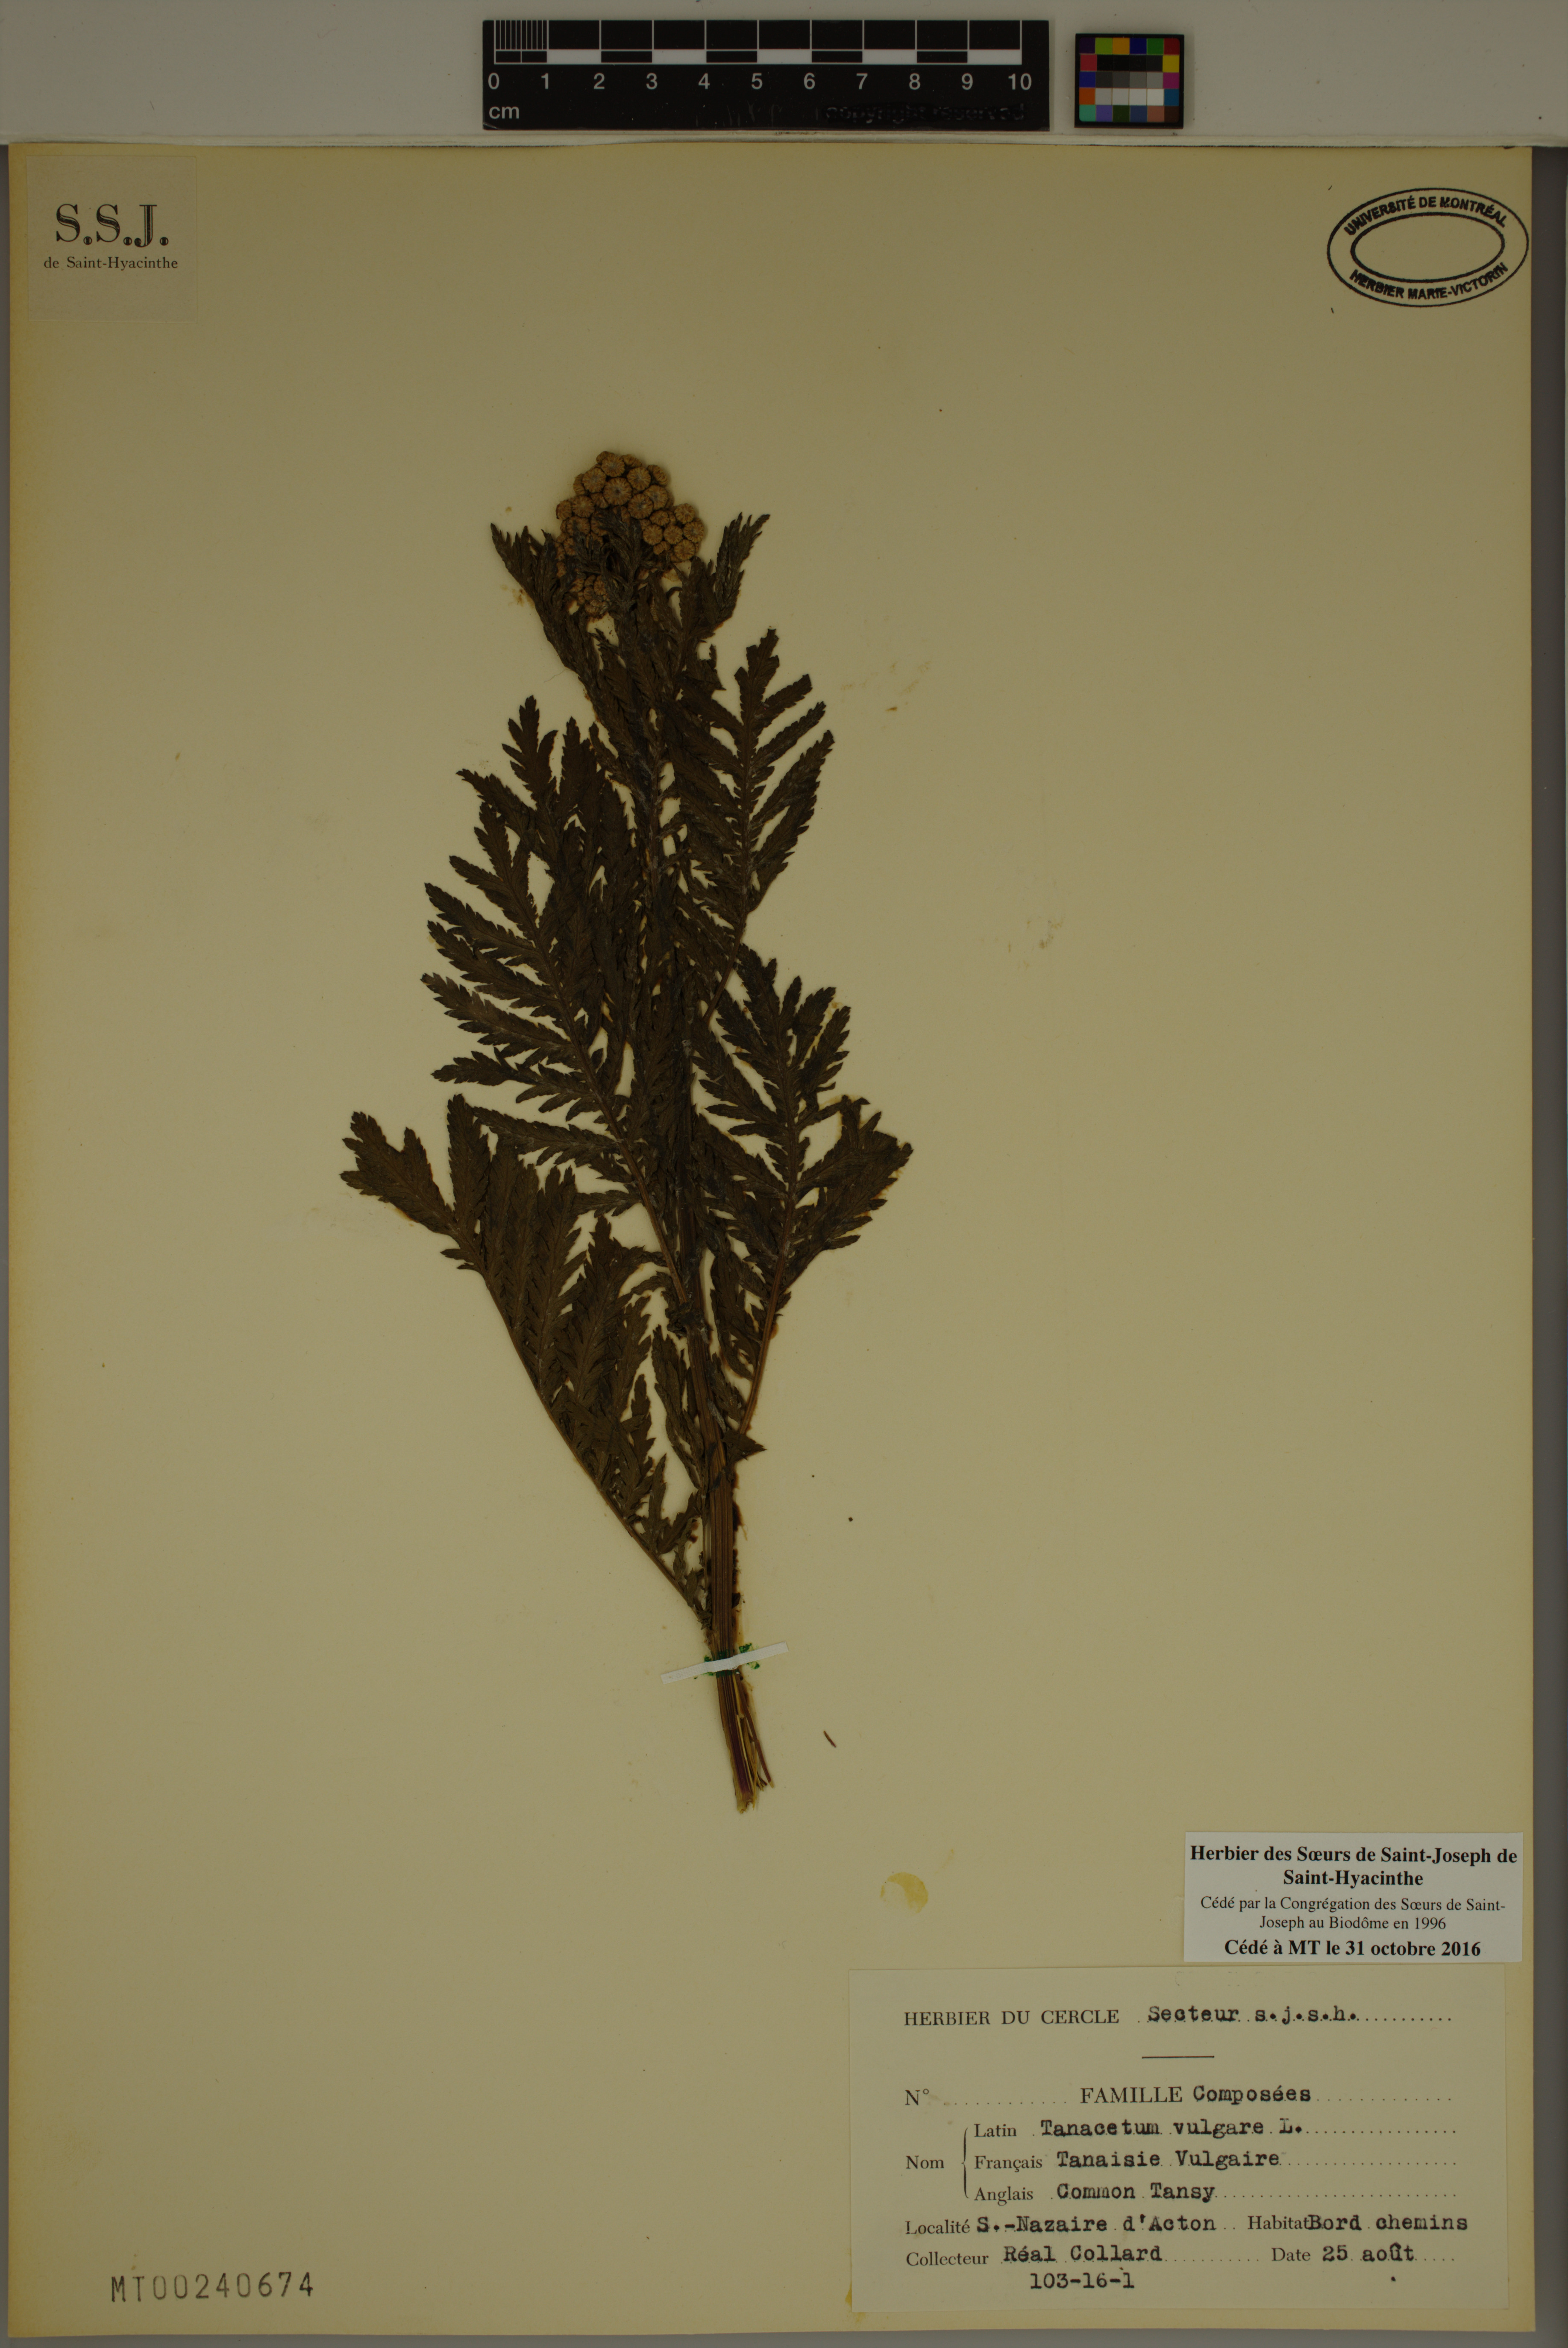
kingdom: Plantae
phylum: Tracheophyta
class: Magnoliopsida
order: Asterales
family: Asteraceae
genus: Tanacetum
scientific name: Tanacetum vulgare
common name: Common tansy
